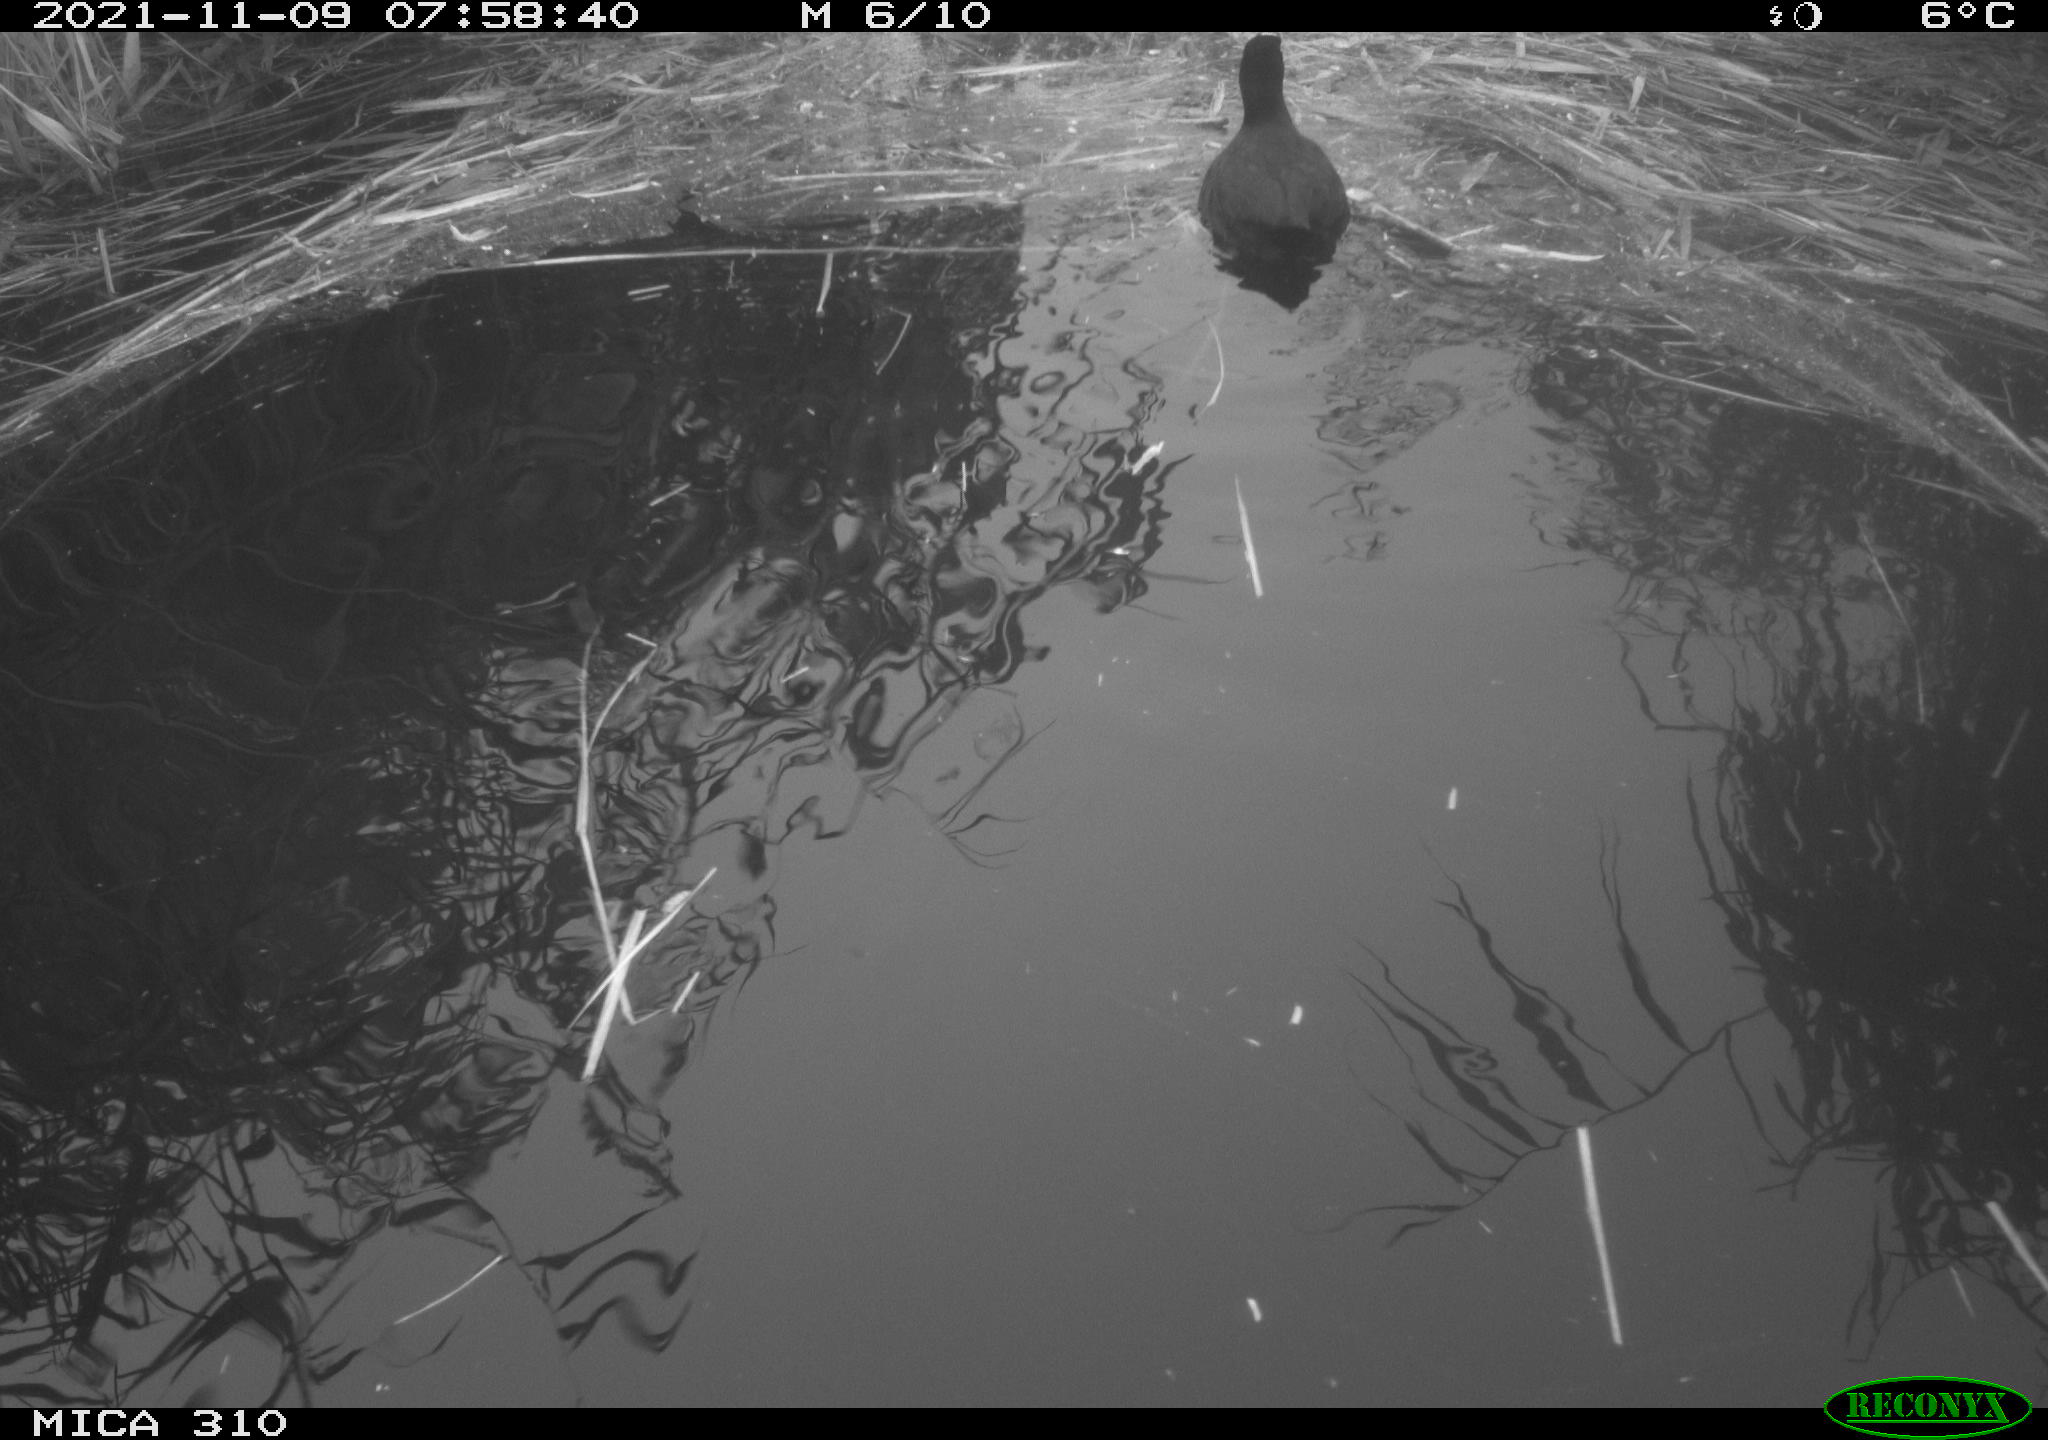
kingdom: Animalia
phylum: Chordata
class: Aves
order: Gruiformes
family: Rallidae
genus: Fulica
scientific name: Fulica atra
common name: Eurasian coot
